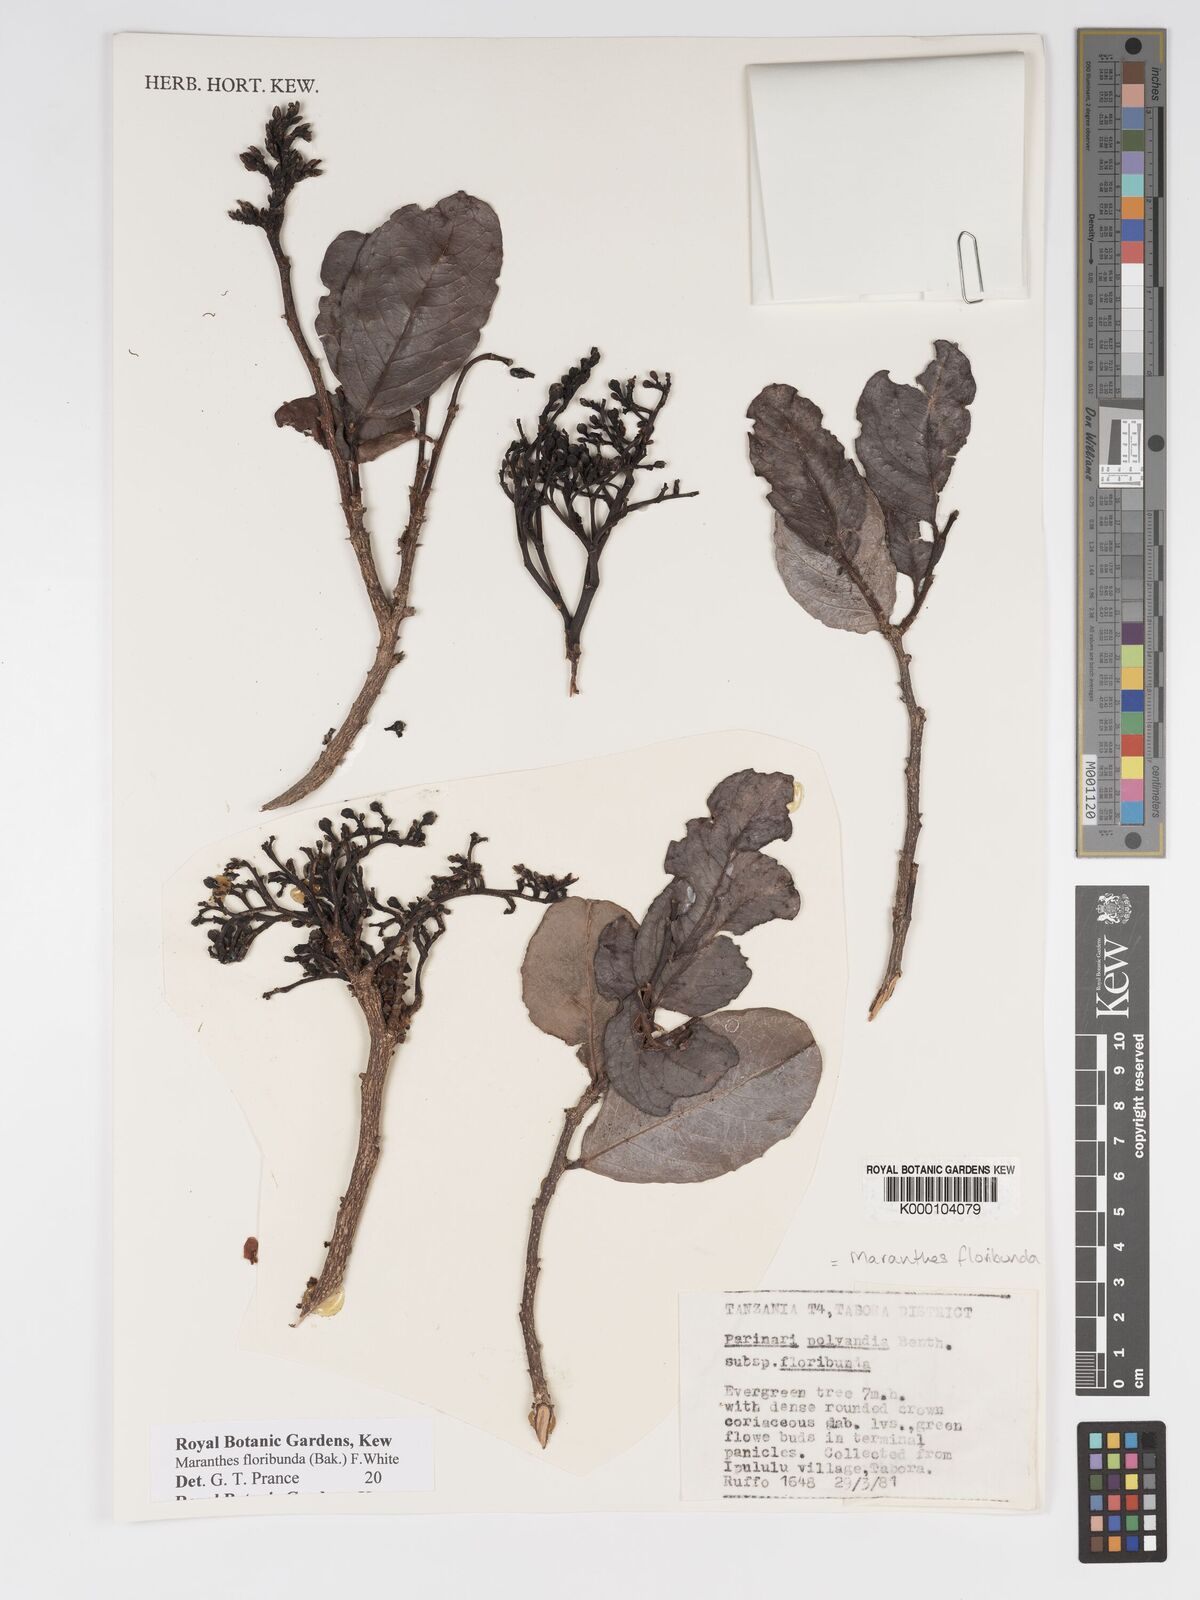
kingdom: Plantae
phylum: Tracheophyta
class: Magnoliopsida
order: Malpighiales
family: Chrysobalanaceae
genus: Maranthes
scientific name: Maranthes floribunda
